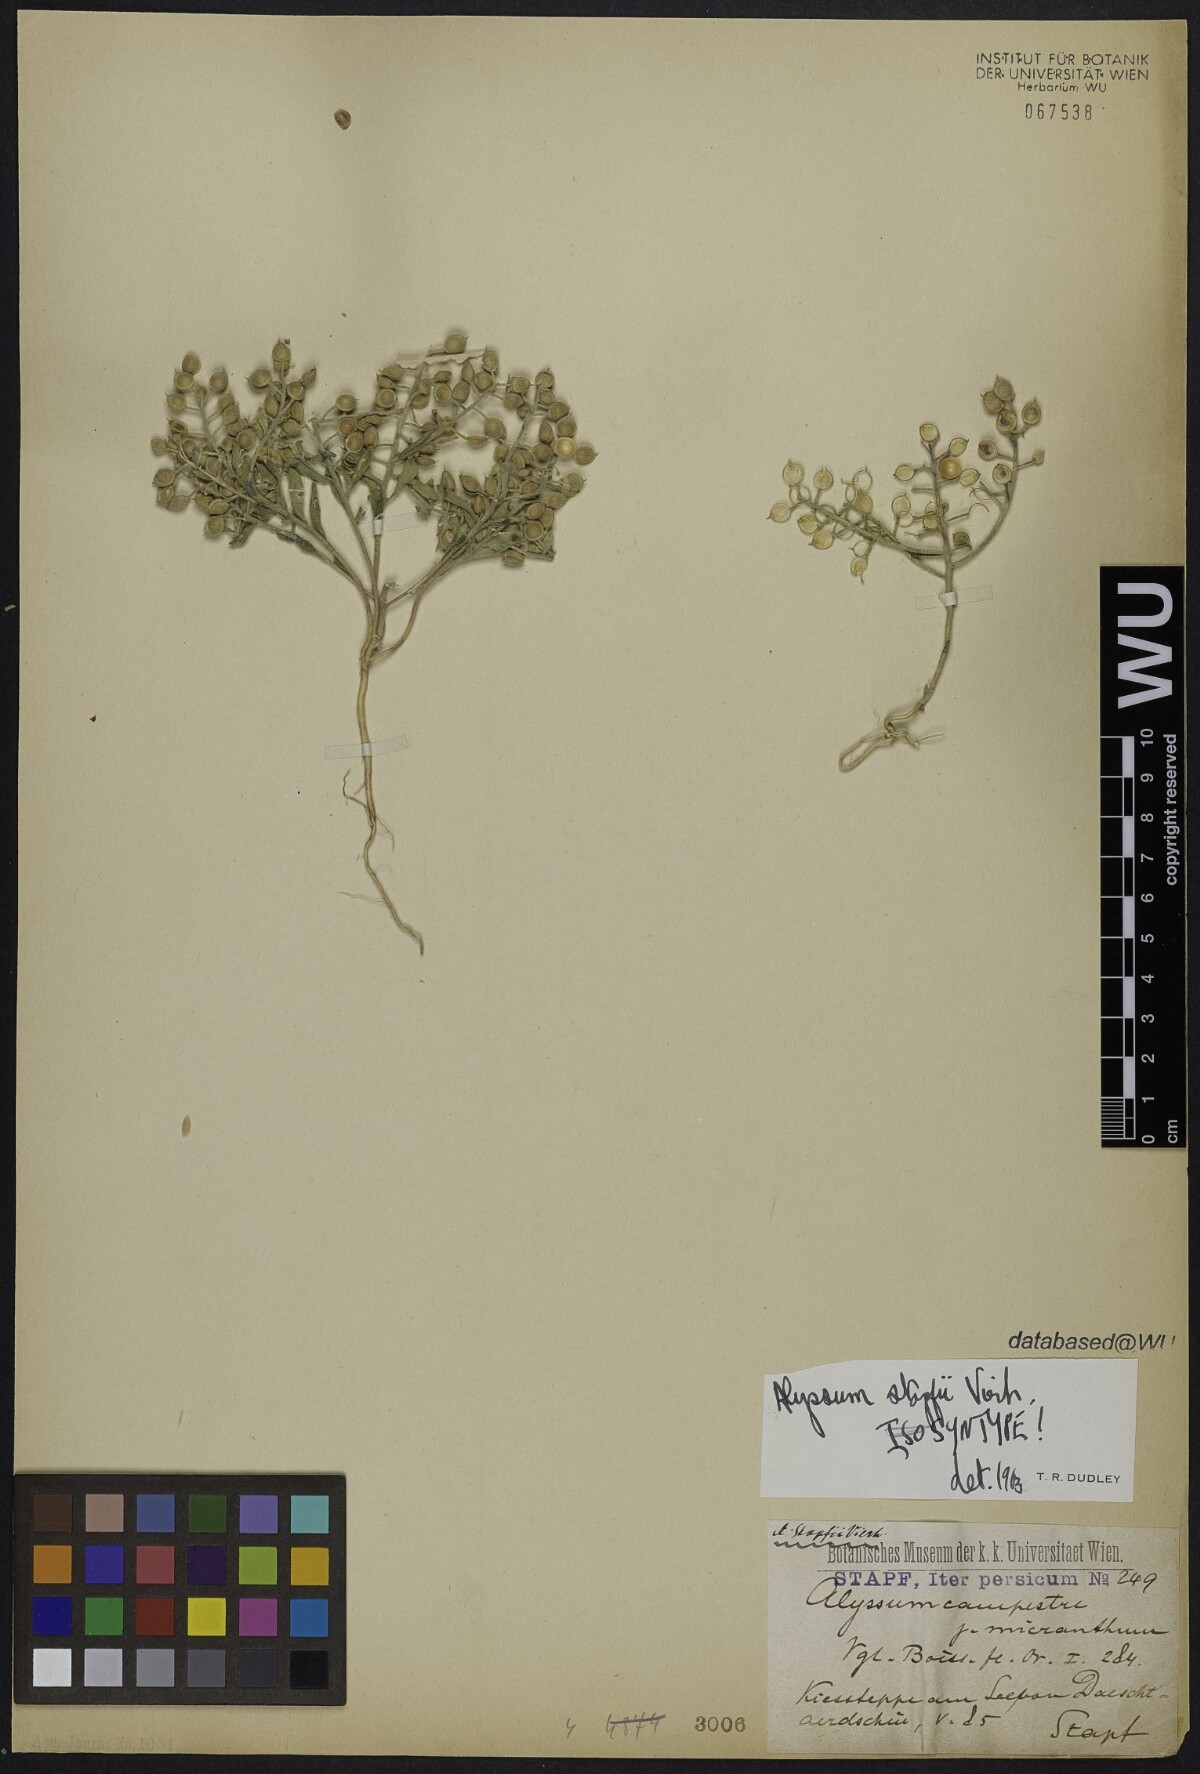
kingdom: Plantae
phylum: Tracheophyta
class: Magnoliopsida
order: Brassicales
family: Brassicaceae
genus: Alyssum
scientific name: Alyssum stapfii
